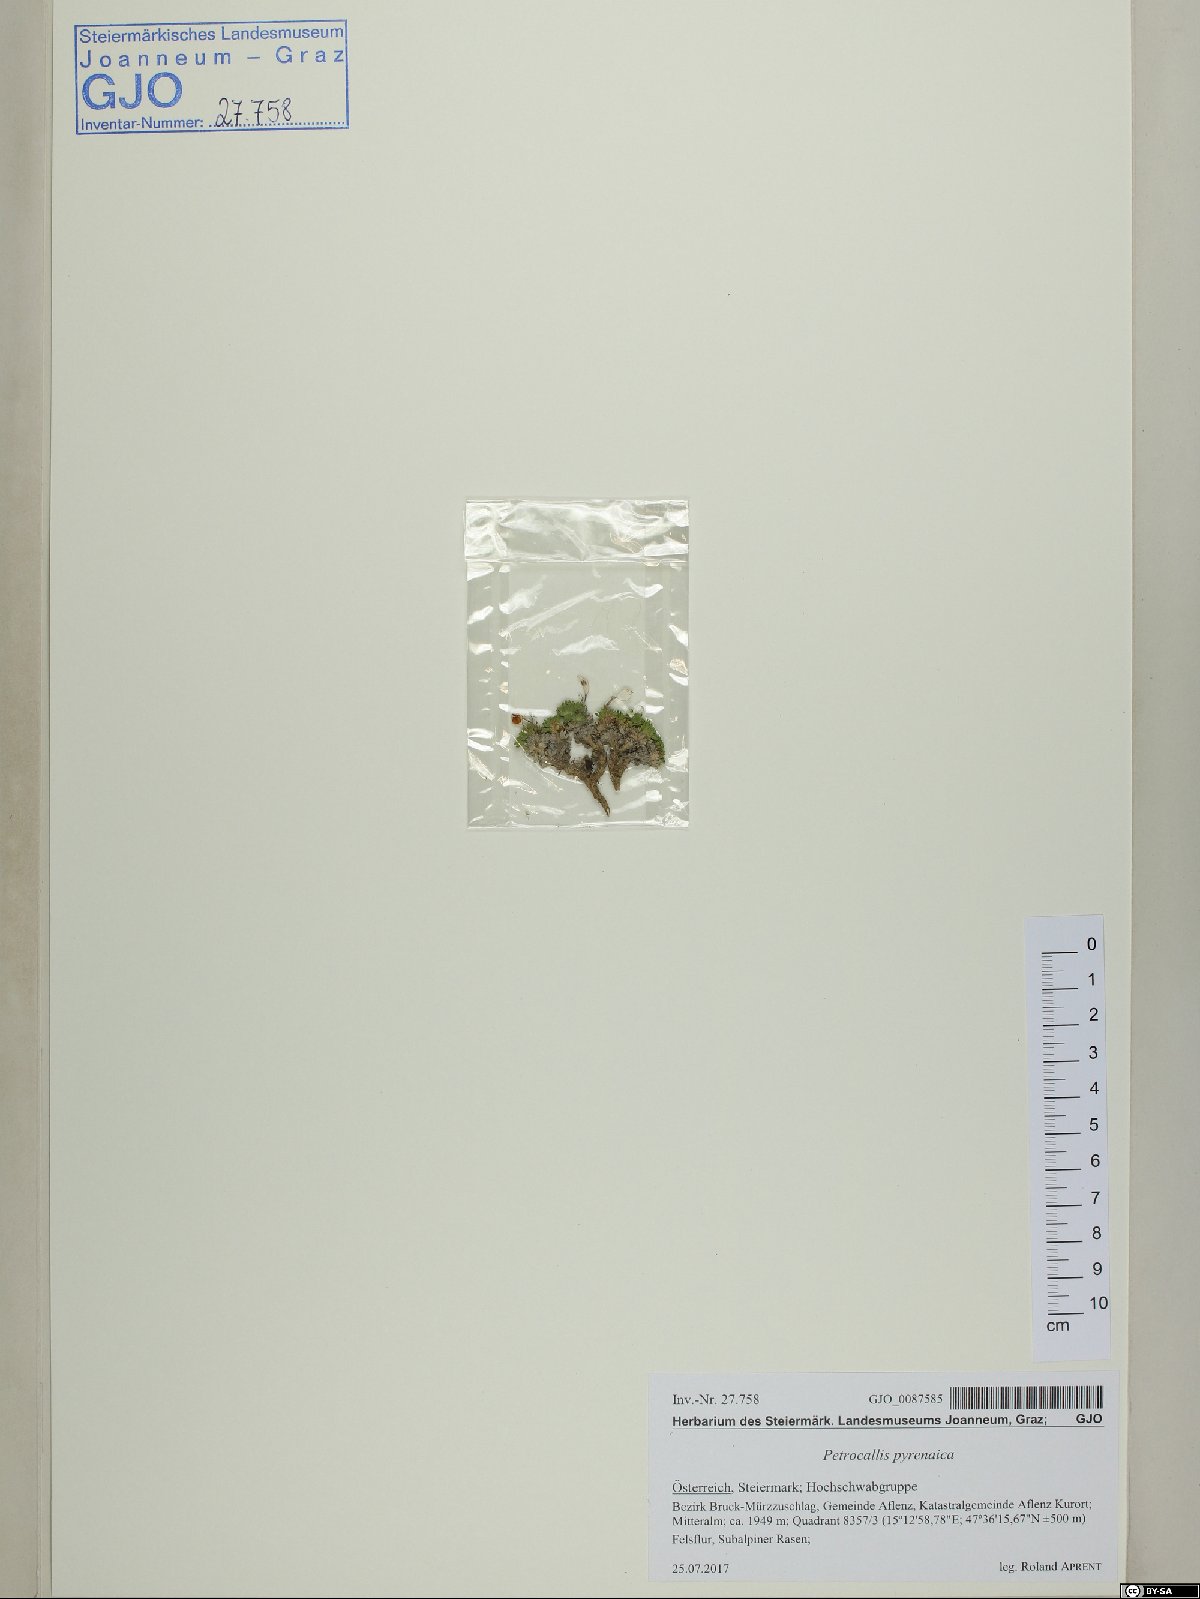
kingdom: Plantae
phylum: Tracheophyta
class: Magnoliopsida
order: Brassicales
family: Brassicaceae
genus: Petrocallis
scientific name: Petrocallis pyrenaica
